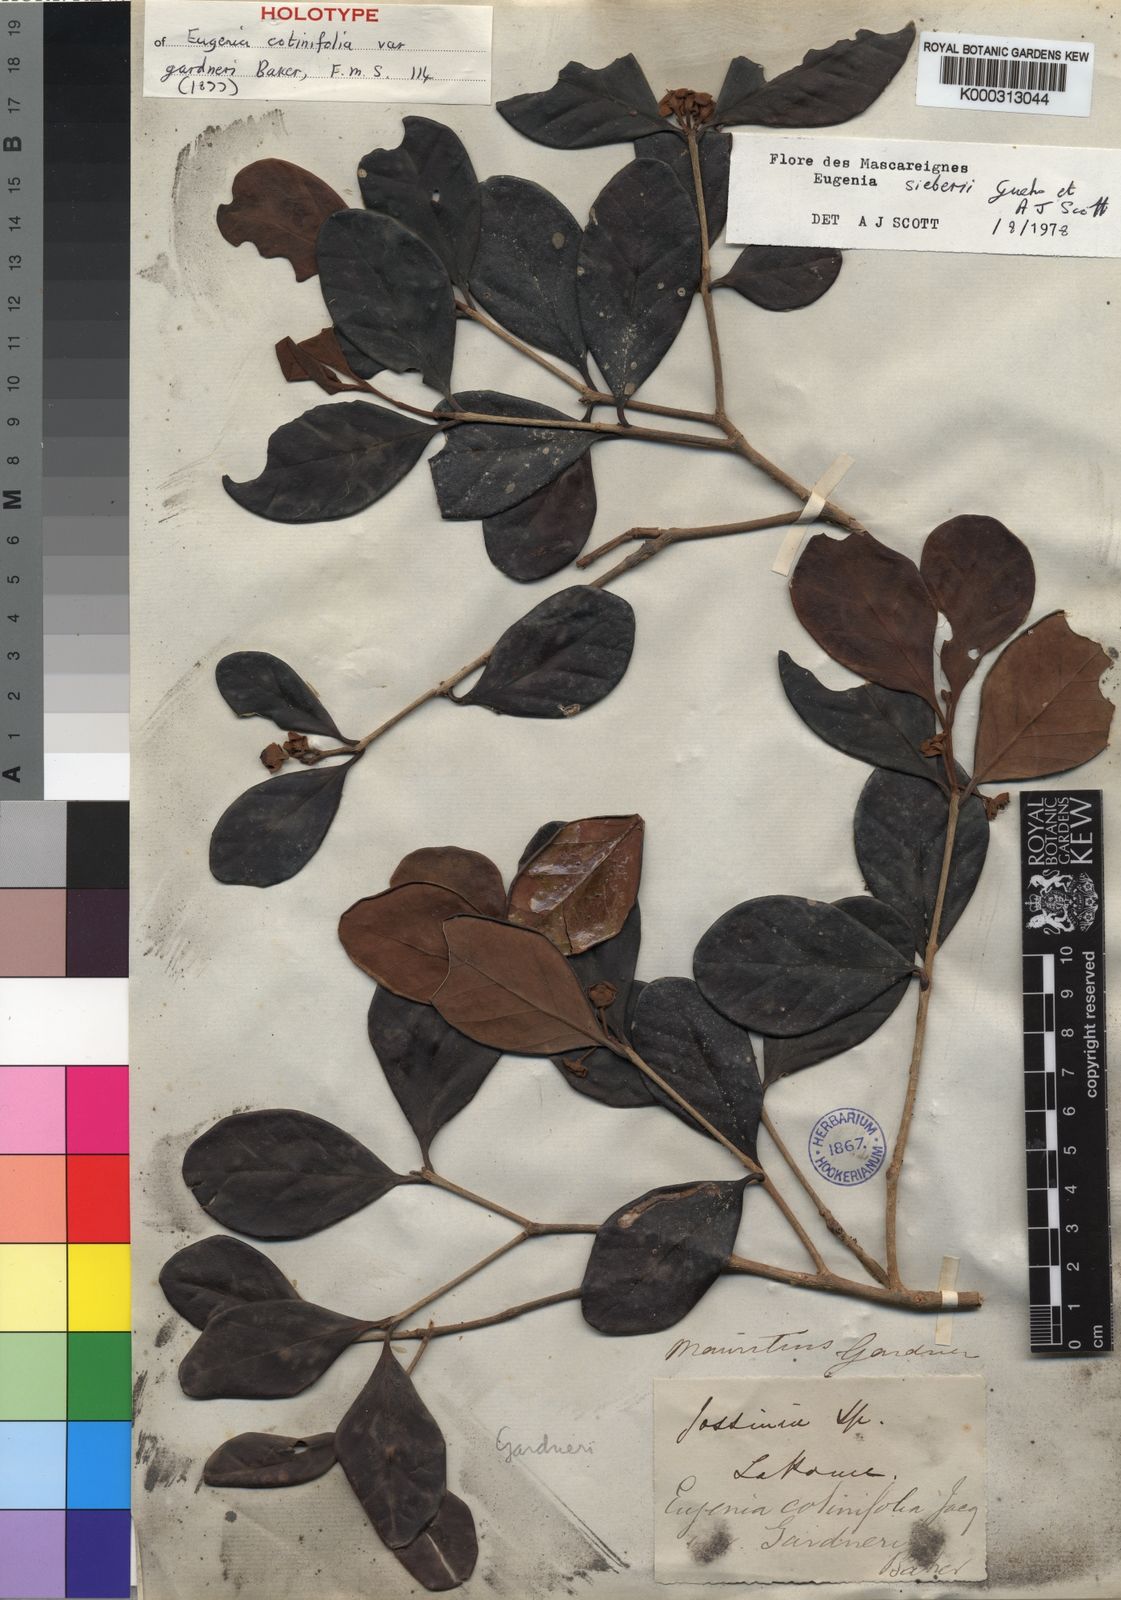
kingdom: Plantae
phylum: Tracheophyta
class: Magnoliopsida
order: Myrtales
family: Myrtaceae
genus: Eugenia
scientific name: Eugenia sieberi
